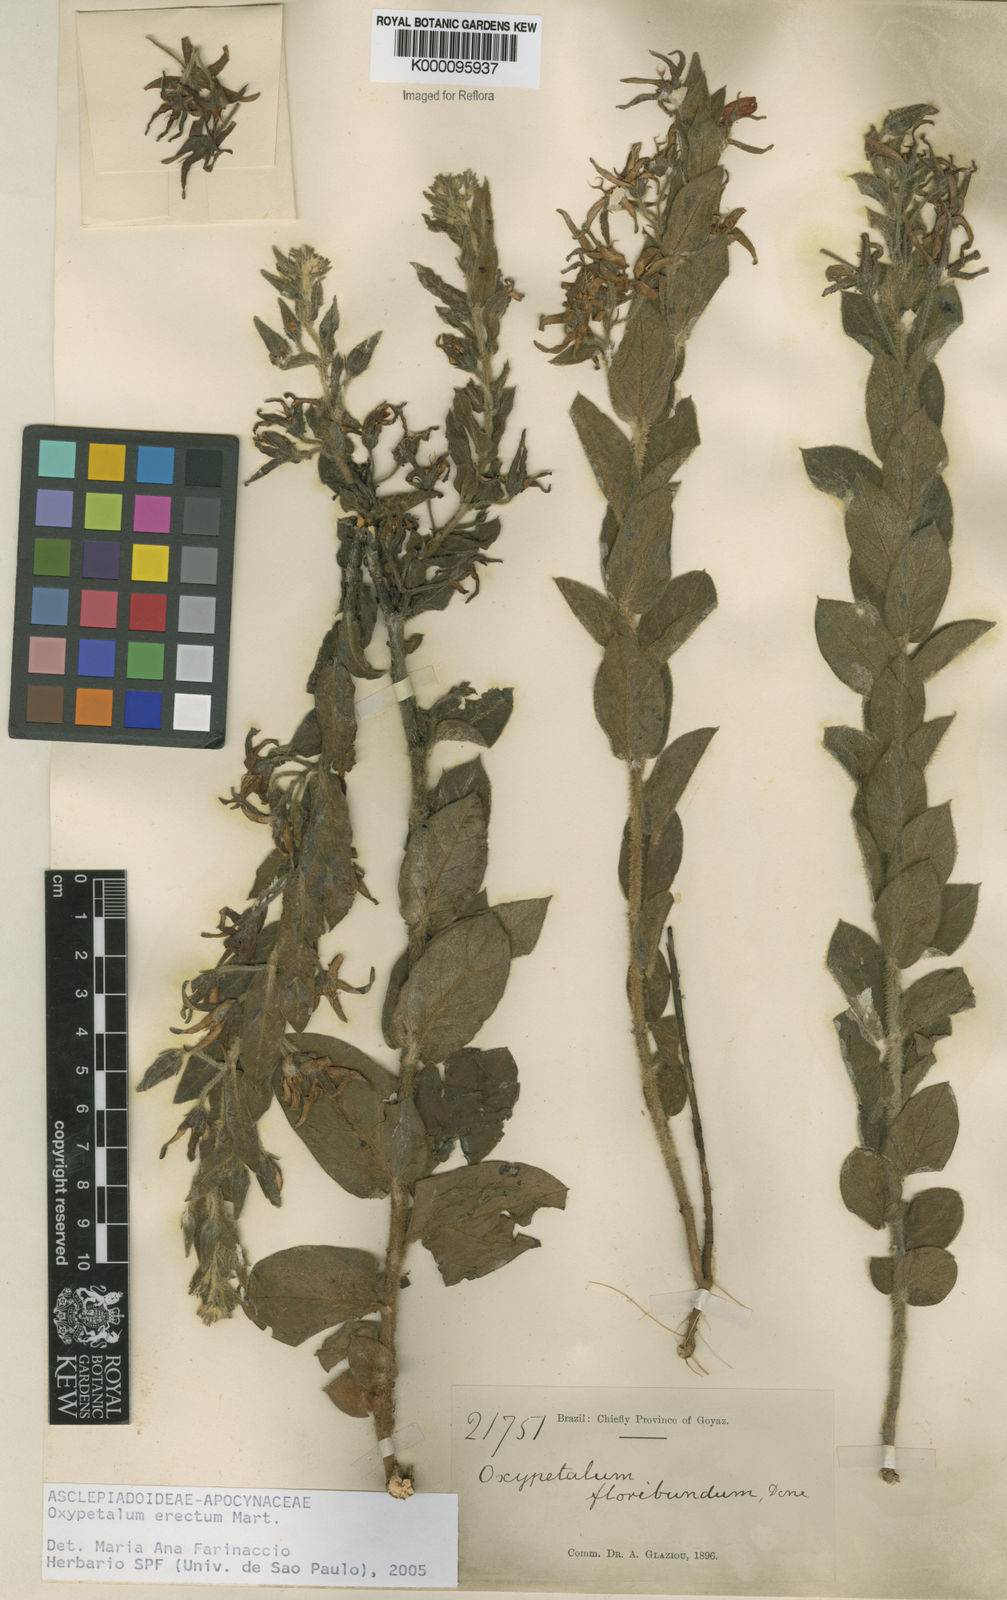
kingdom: Plantae
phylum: Tracheophyta
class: Magnoliopsida
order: Gentianales
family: Apocynaceae
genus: Oxypetalum
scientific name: Oxypetalum erectum
